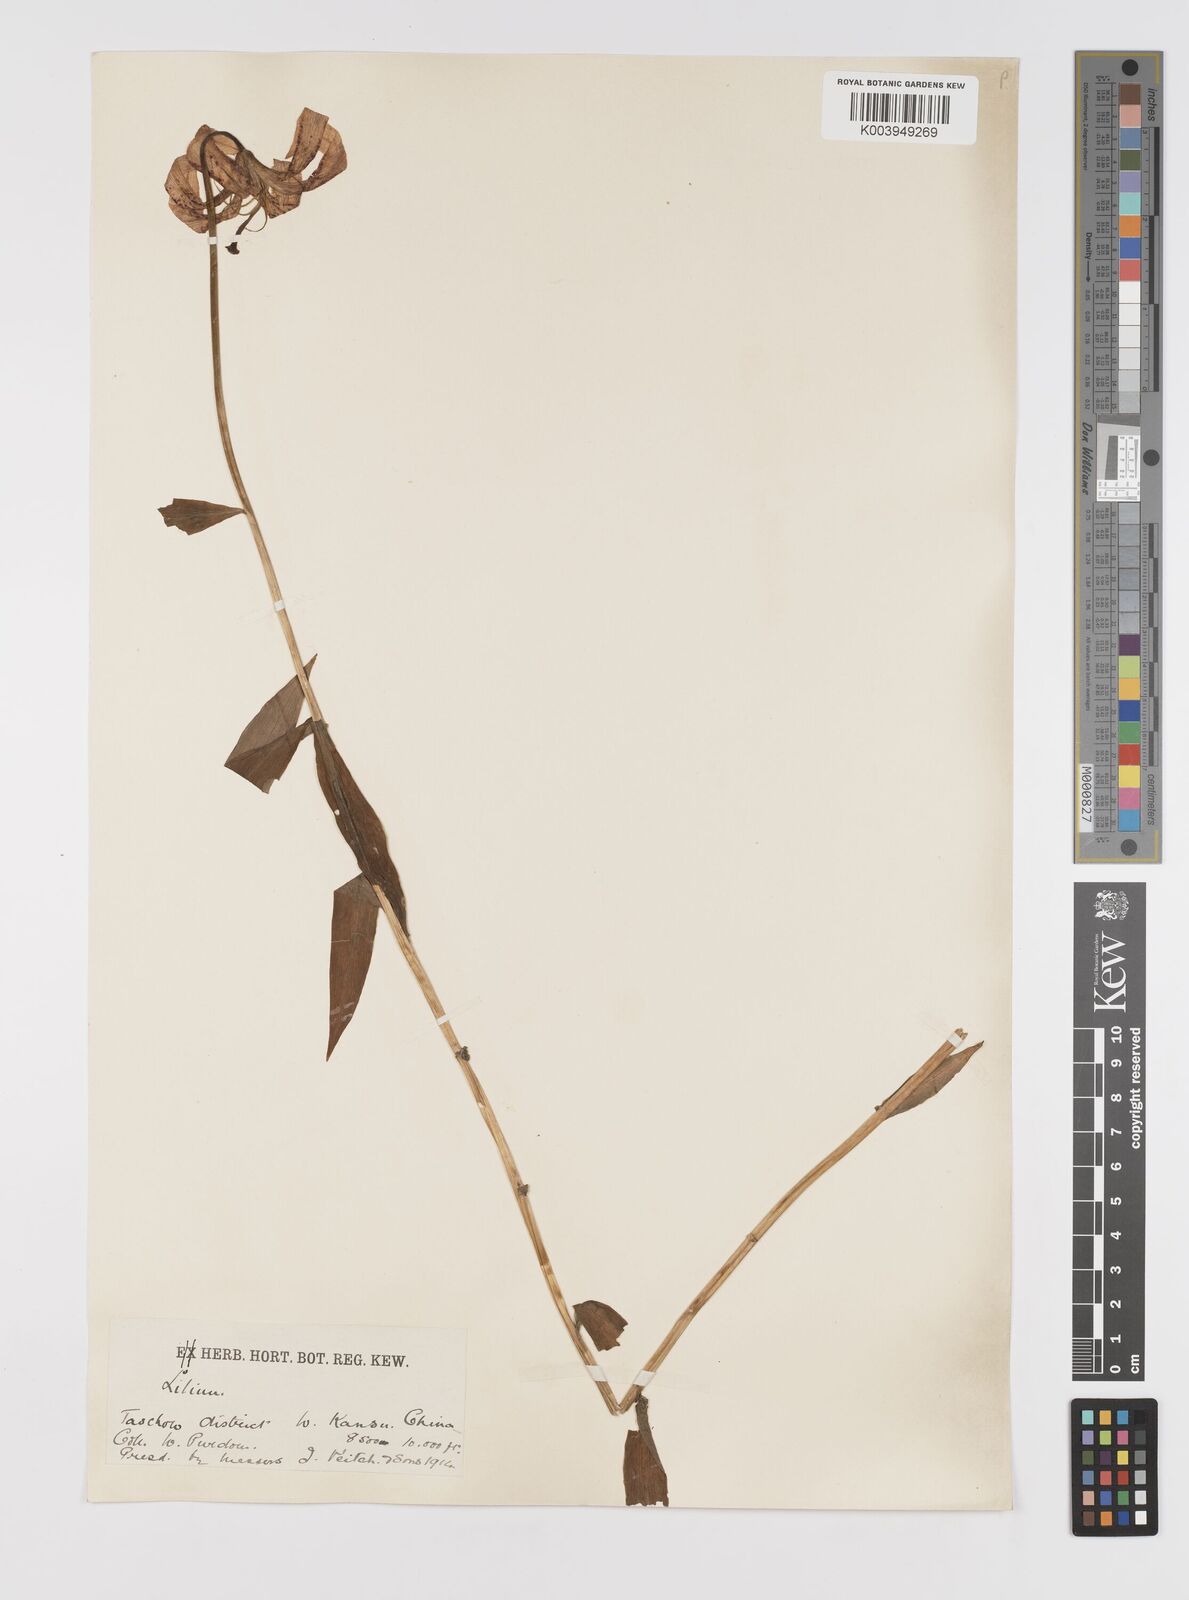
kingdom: Plantae
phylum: Tracheophyta
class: Liliopsida
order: Liliales
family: Liliaceae
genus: Lilium
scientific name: Lilium duchartrei
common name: Duchartre lily
